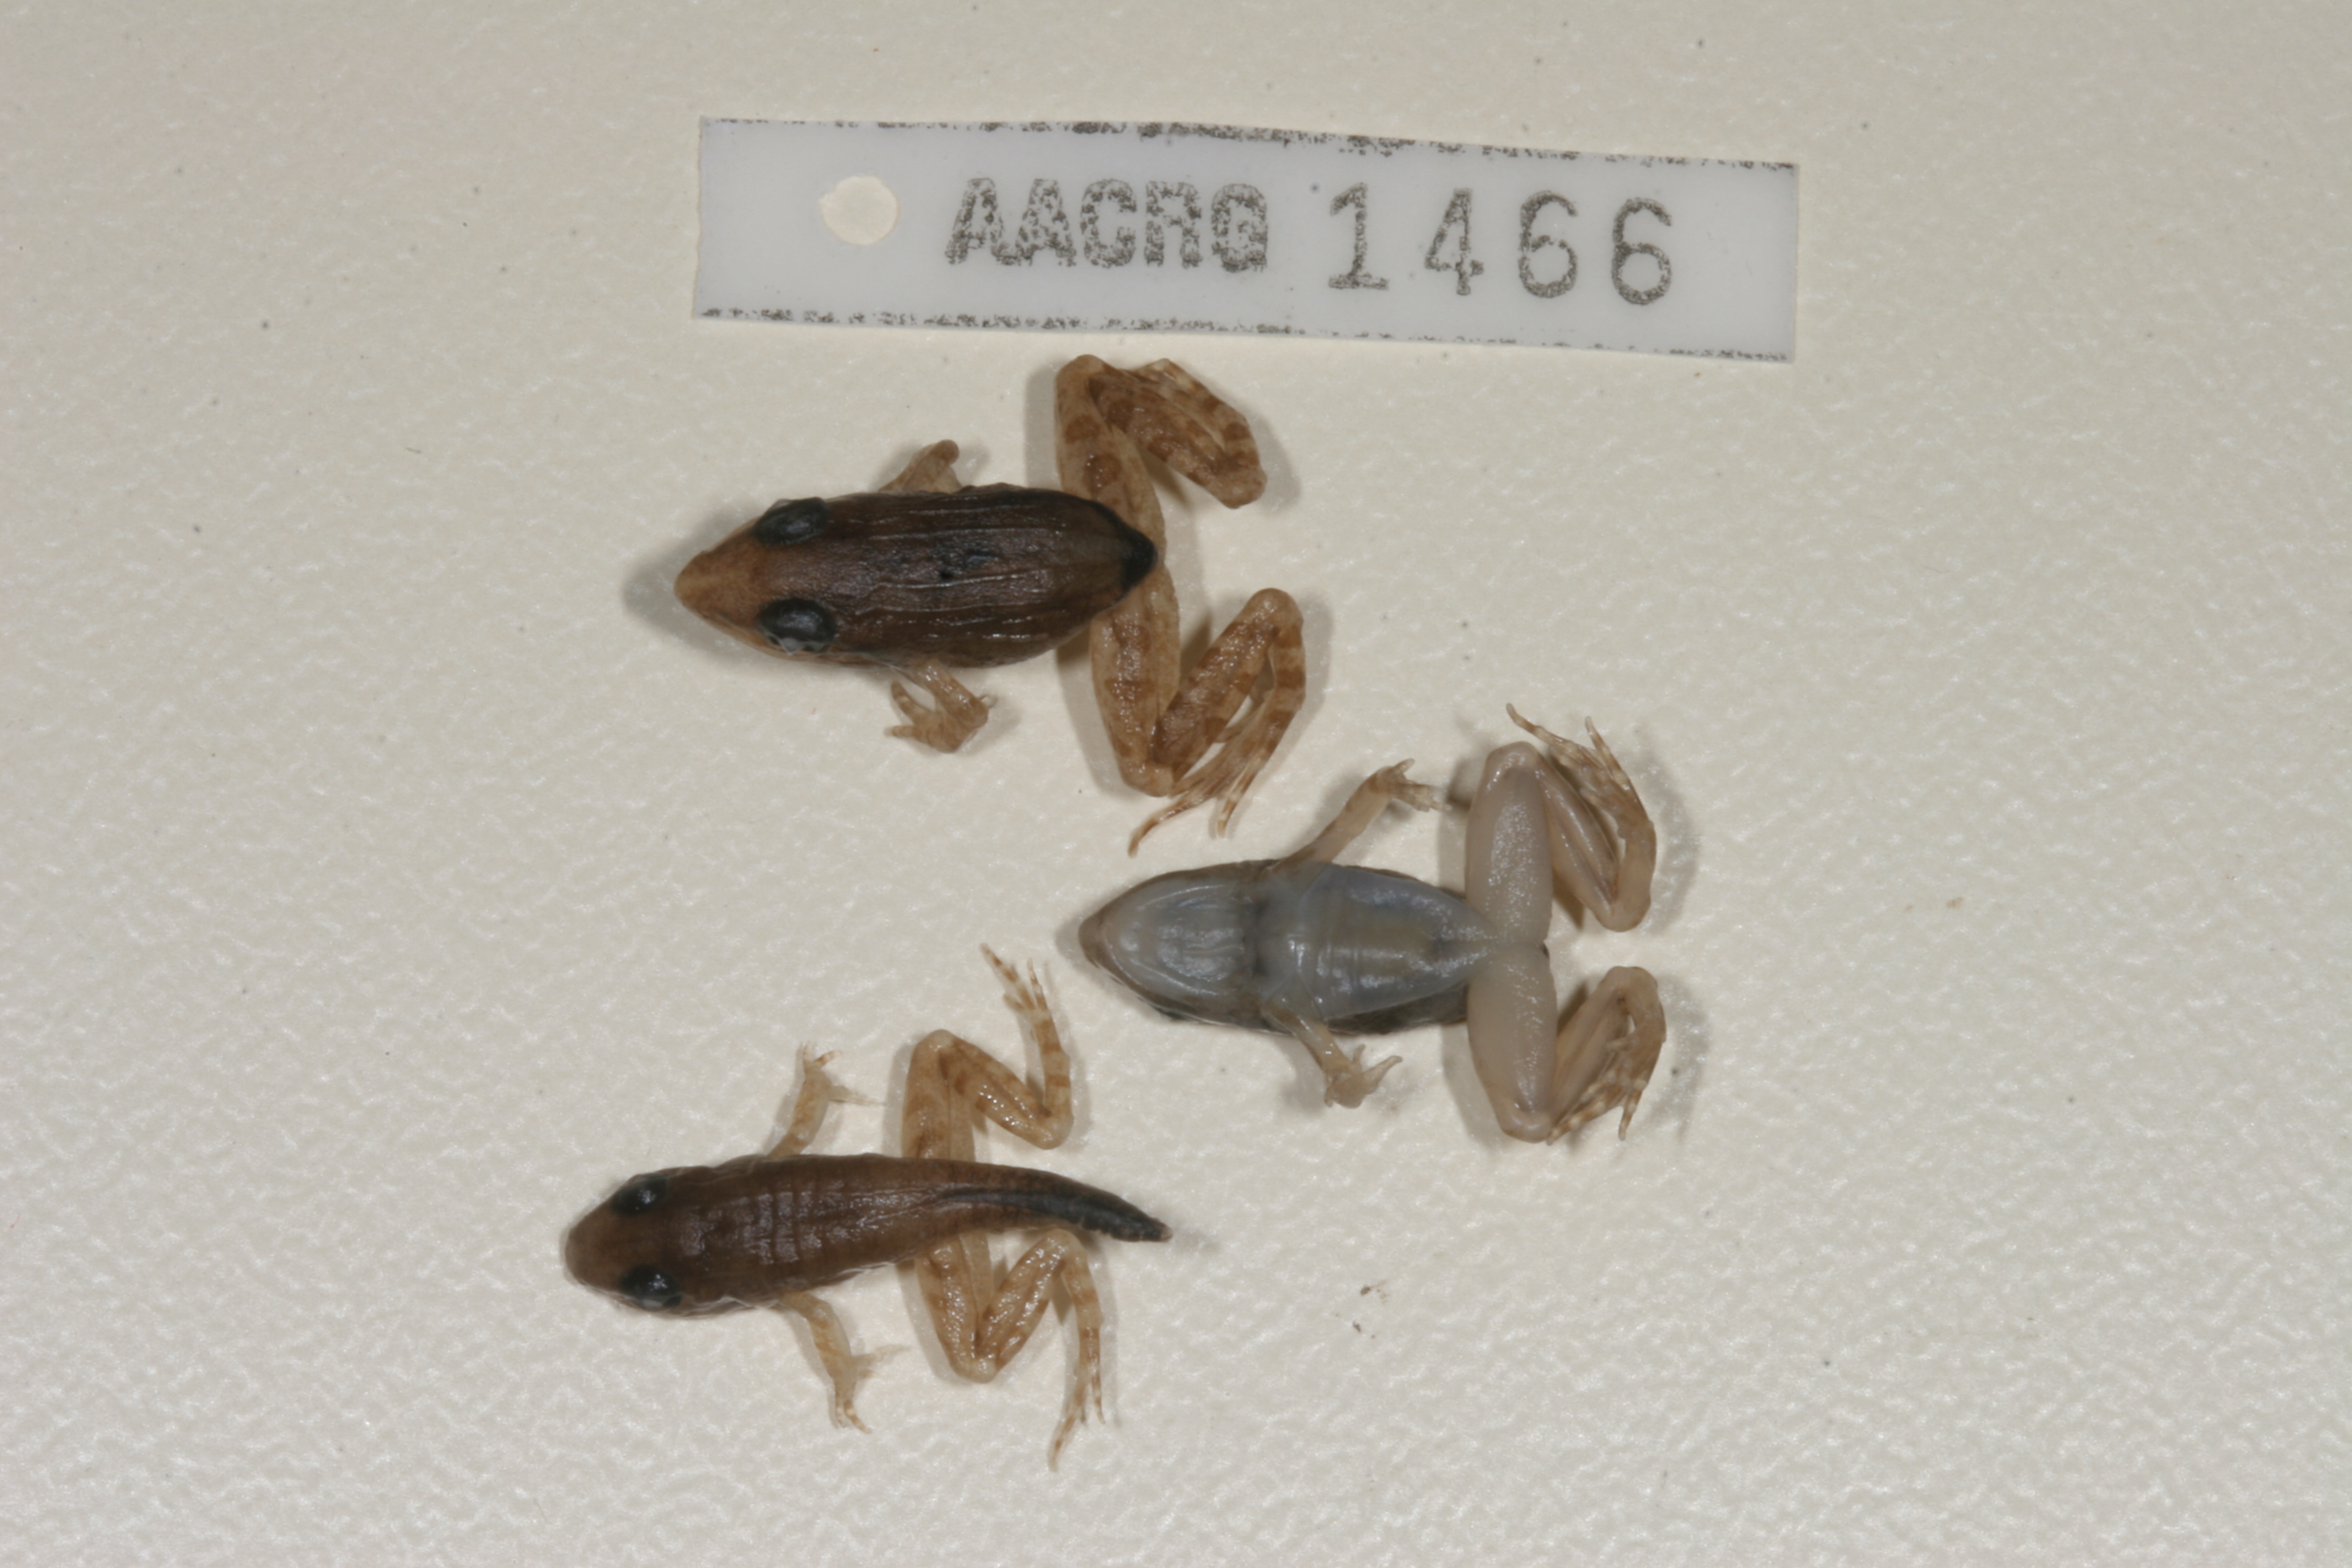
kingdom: Animalia
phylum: Chordata
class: Amphibia
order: Anura
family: Ptychadenidae
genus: Ptychadena
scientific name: Ptychadena anchietae
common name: Anchieta's ridged frog
